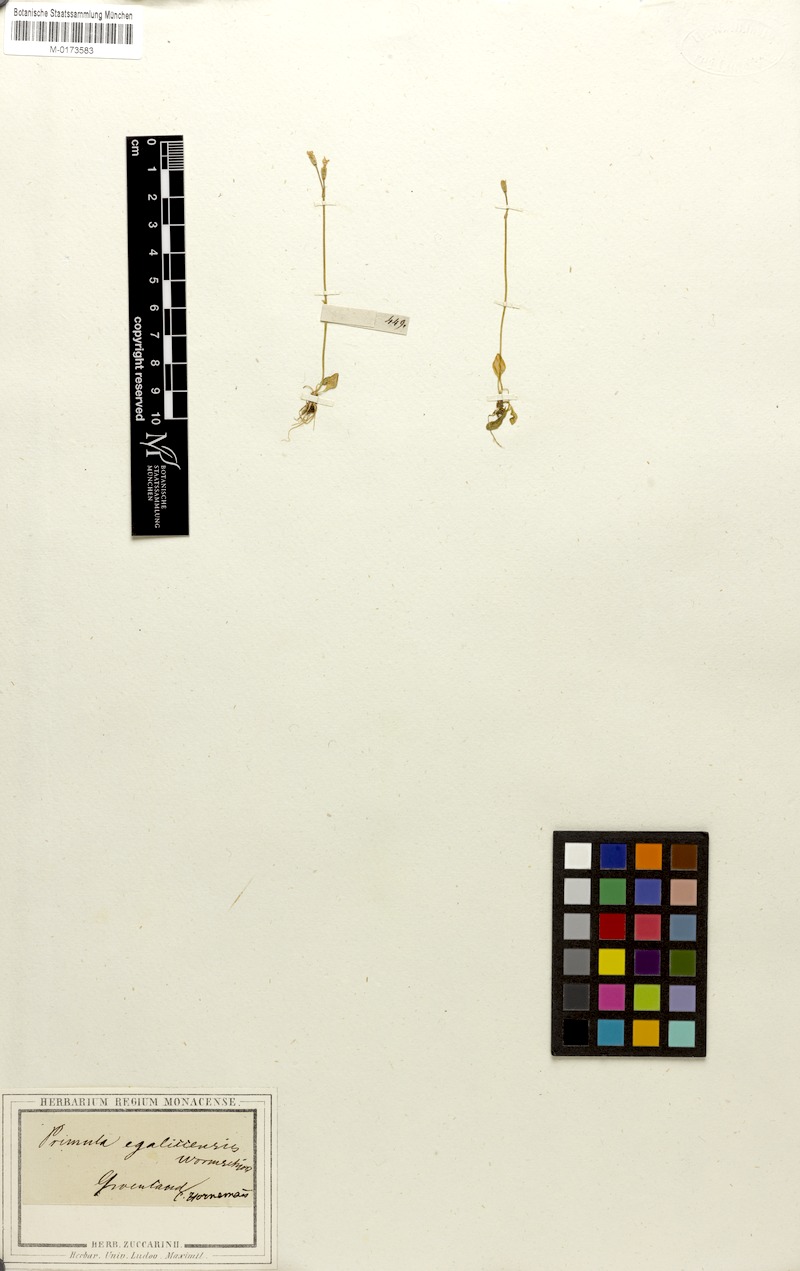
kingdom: Plantae
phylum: Tracheophyta
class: Magnoliopsida
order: Ericales
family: Primulaceae
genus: Primula
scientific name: Primula egaliksensis
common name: Greenland primrose
